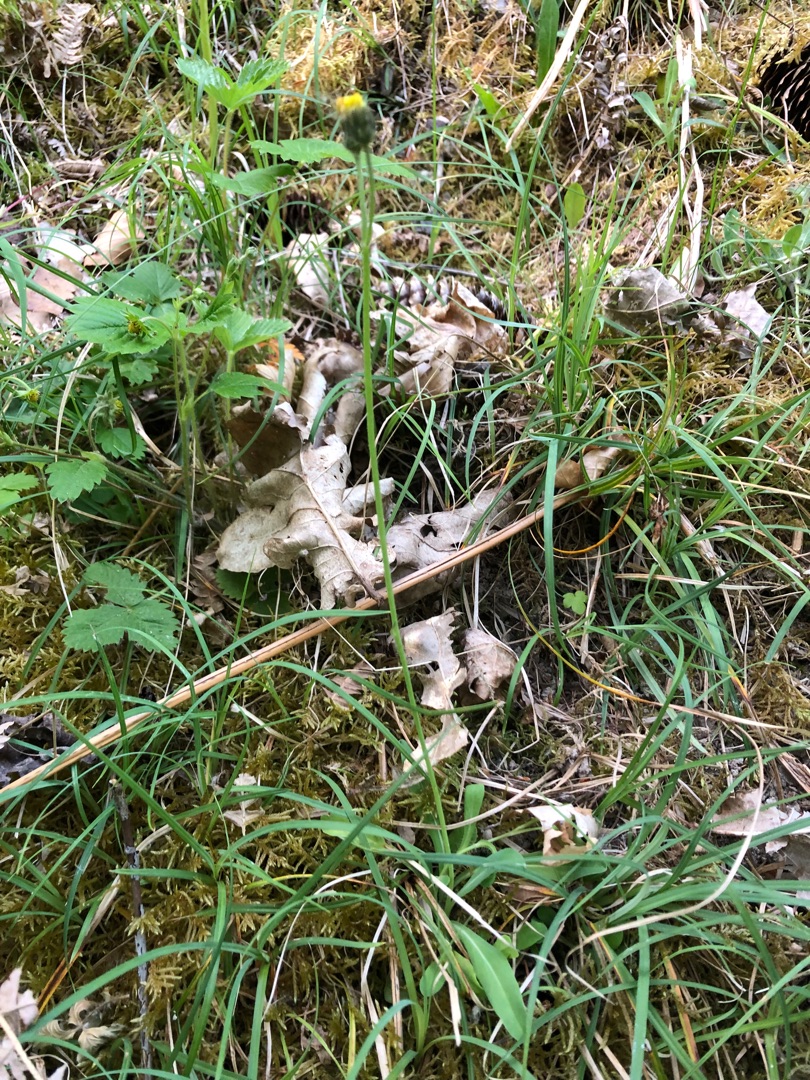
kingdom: Plantae
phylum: Tracheophyta
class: Magnoliopsida
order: Asterales
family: Asteraceae
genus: Pilosella
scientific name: Pilosella lactucella
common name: Lancetbladet høgeurt
